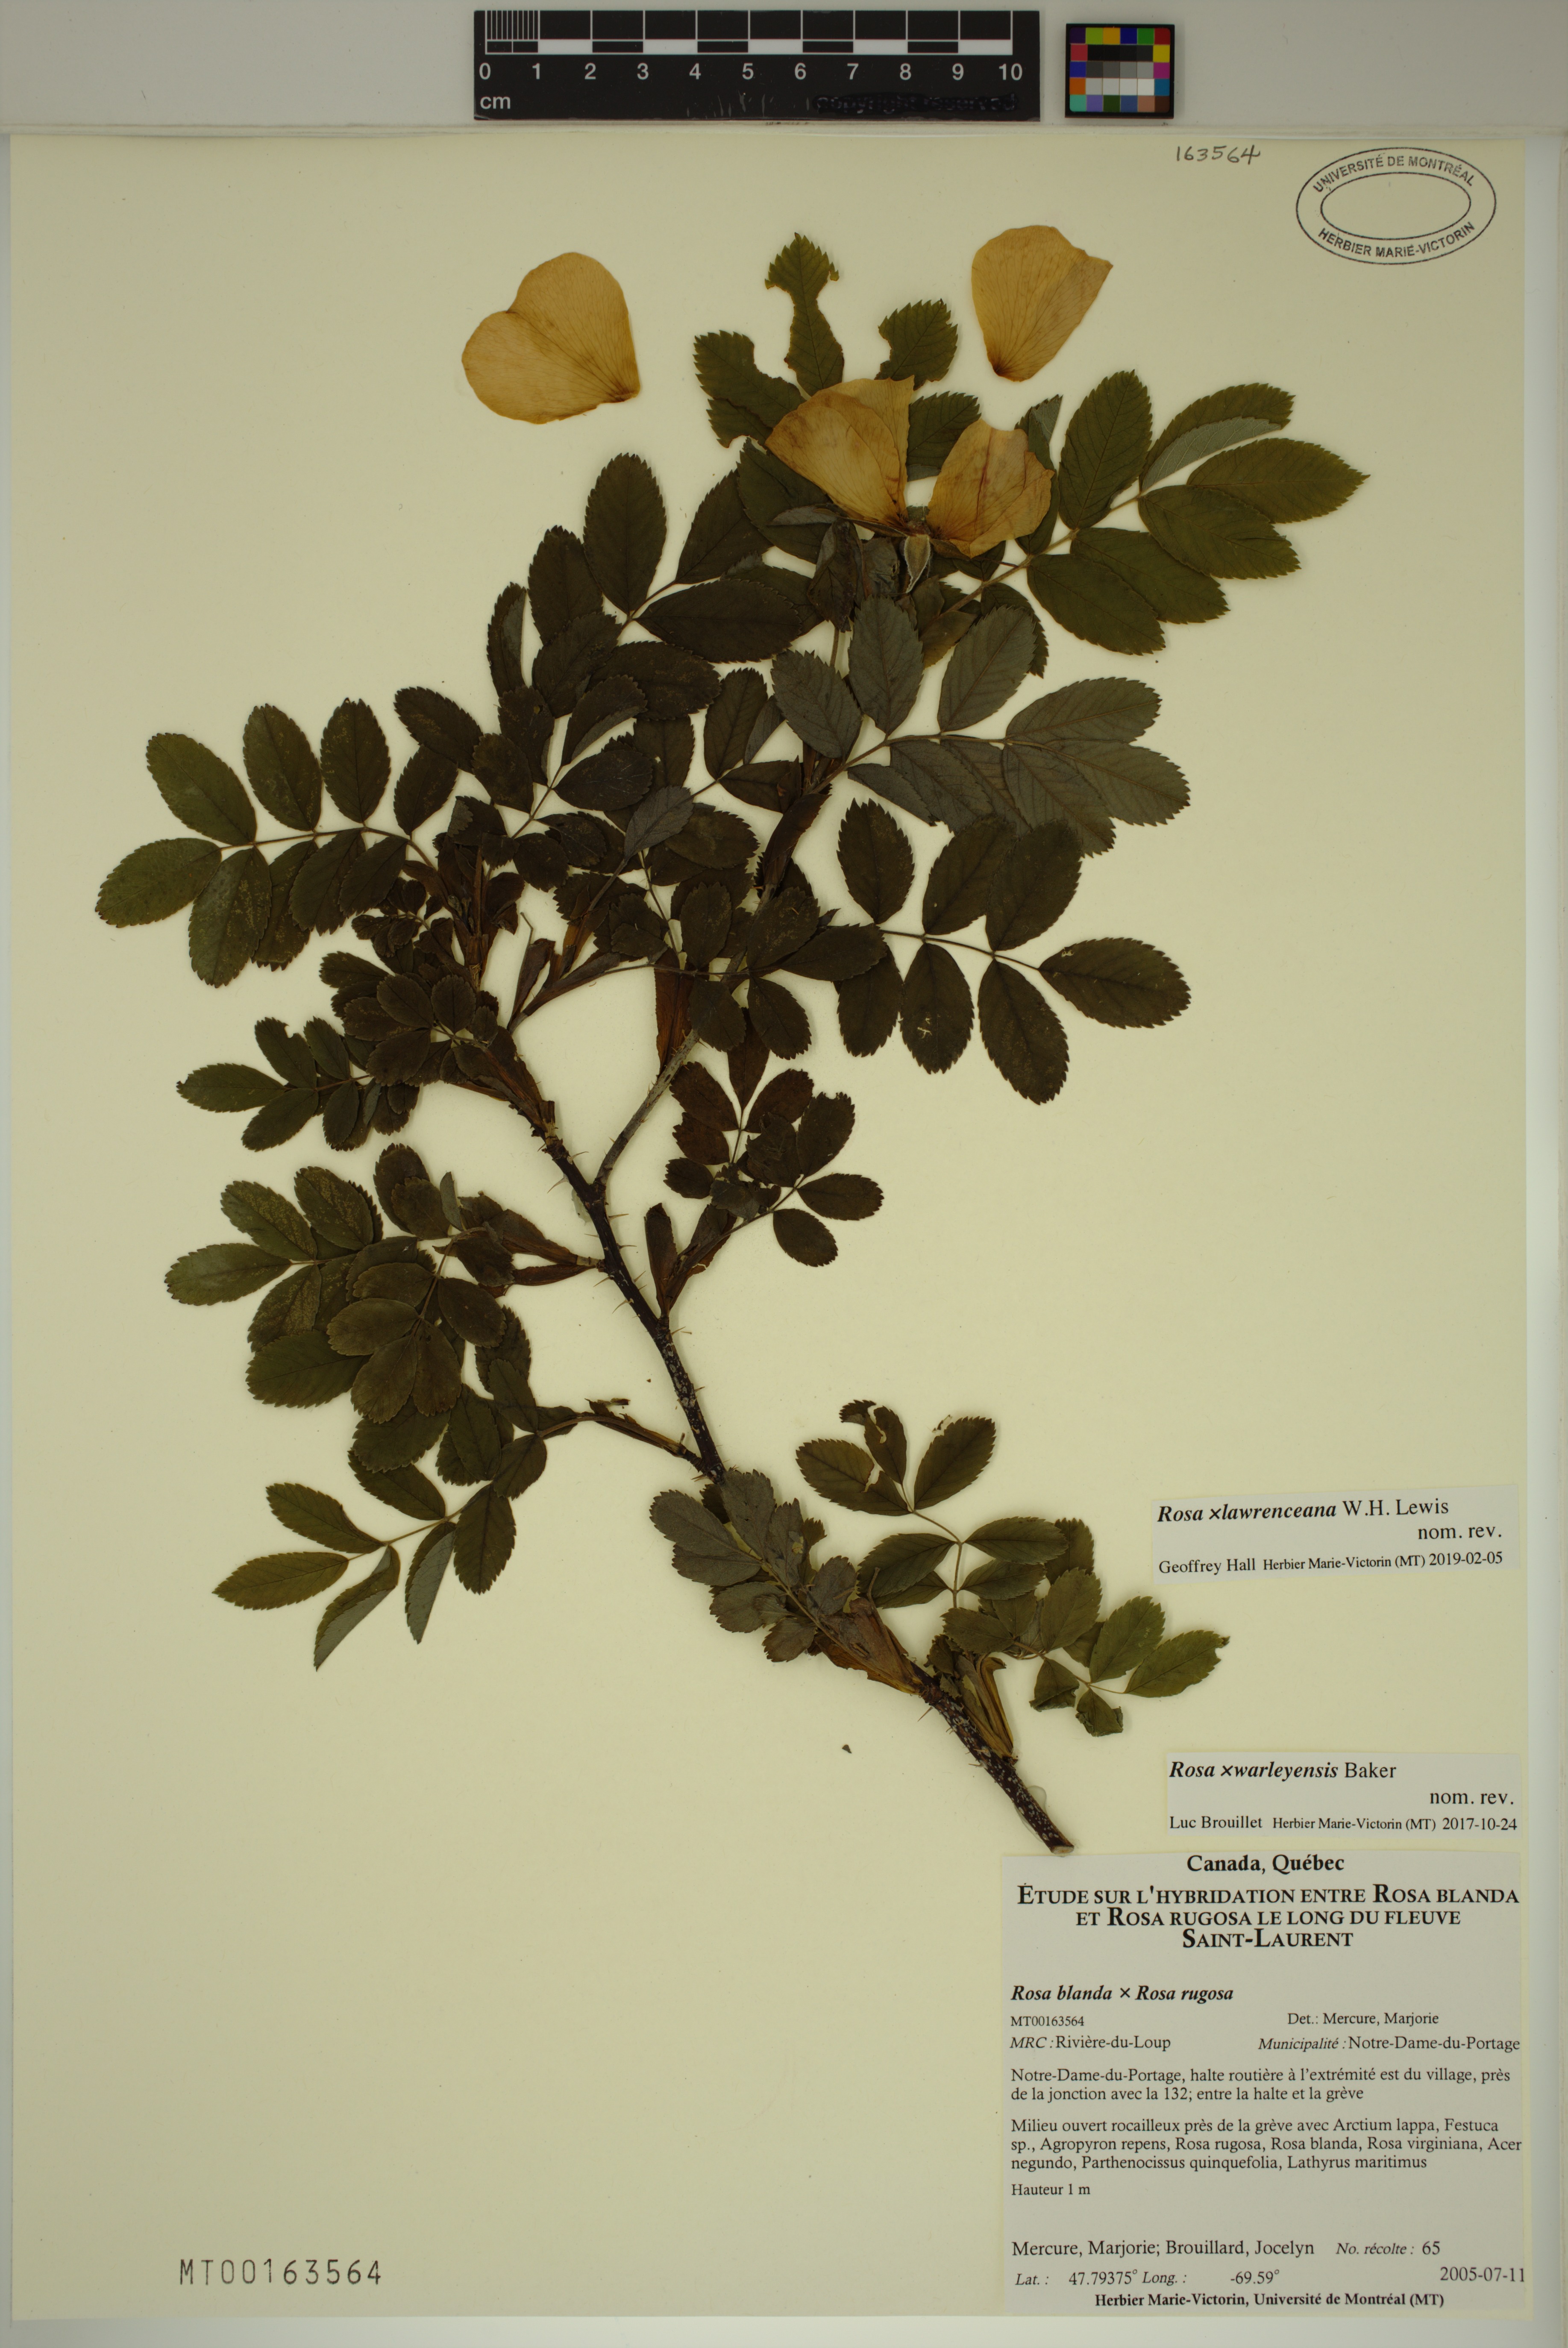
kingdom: Plantae
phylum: Tracheophyta
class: Magnoliopsida
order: Rosales
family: Rosaceae
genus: Rosa
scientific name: Rosa chinensis
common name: China rose
